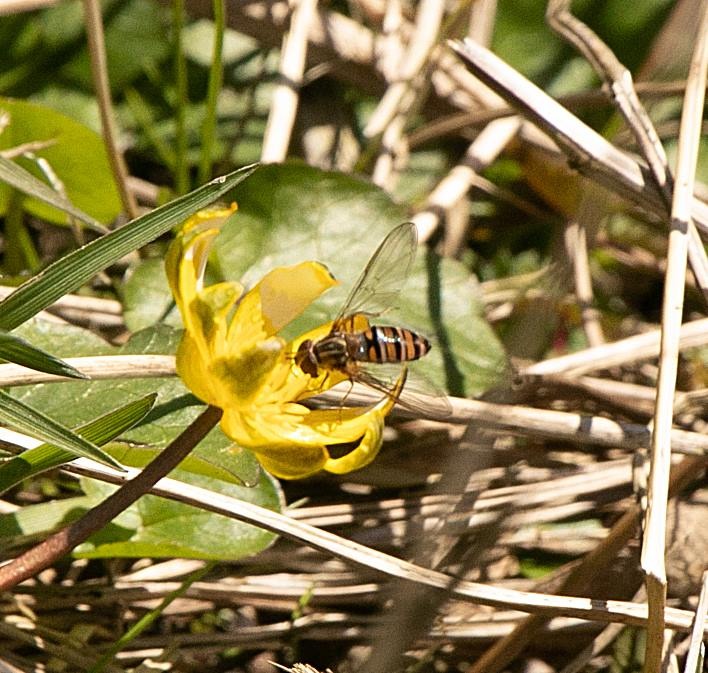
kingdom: Animalia
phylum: Arthropoda
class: Insecta
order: Diptera
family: Syrphidae
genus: Episyrphus
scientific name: Episyrphus balteatus
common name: Dobbeltbåndet svirreflue
